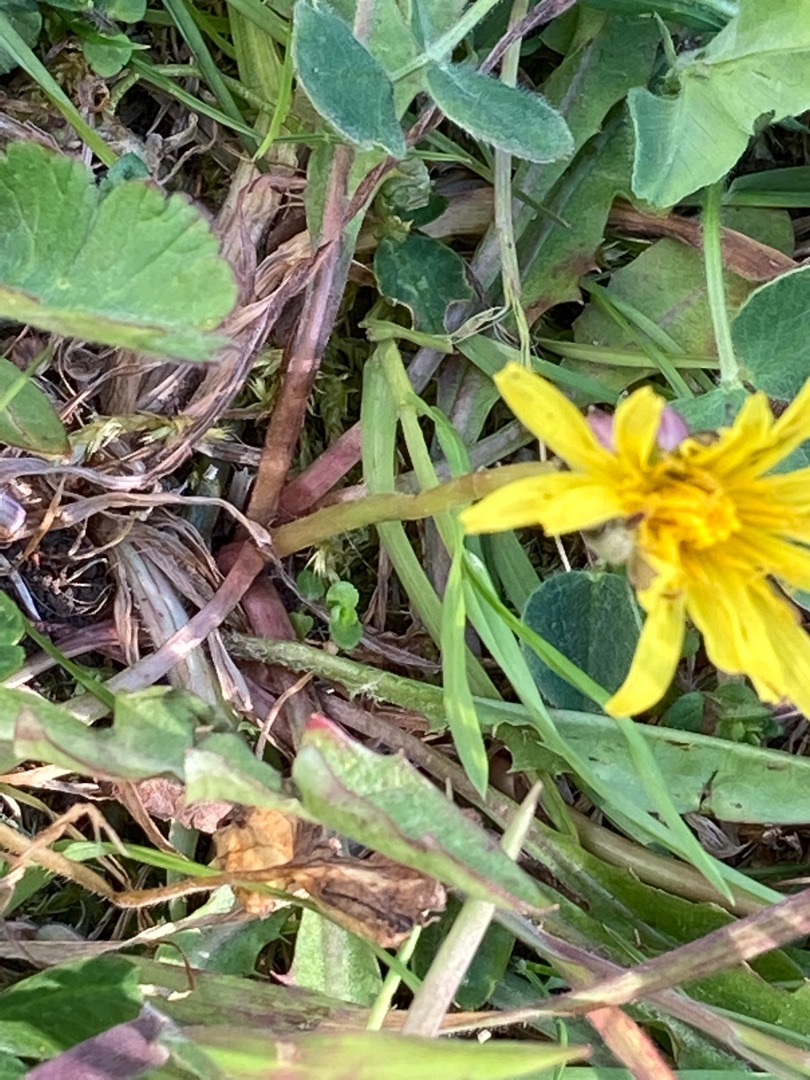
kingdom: Plantae
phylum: Tracheophyta
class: Magnoliopsida
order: Asterales
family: Asteraceae
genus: Taraxacum
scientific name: Taraxacum
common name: Mælkebøtteslægten
